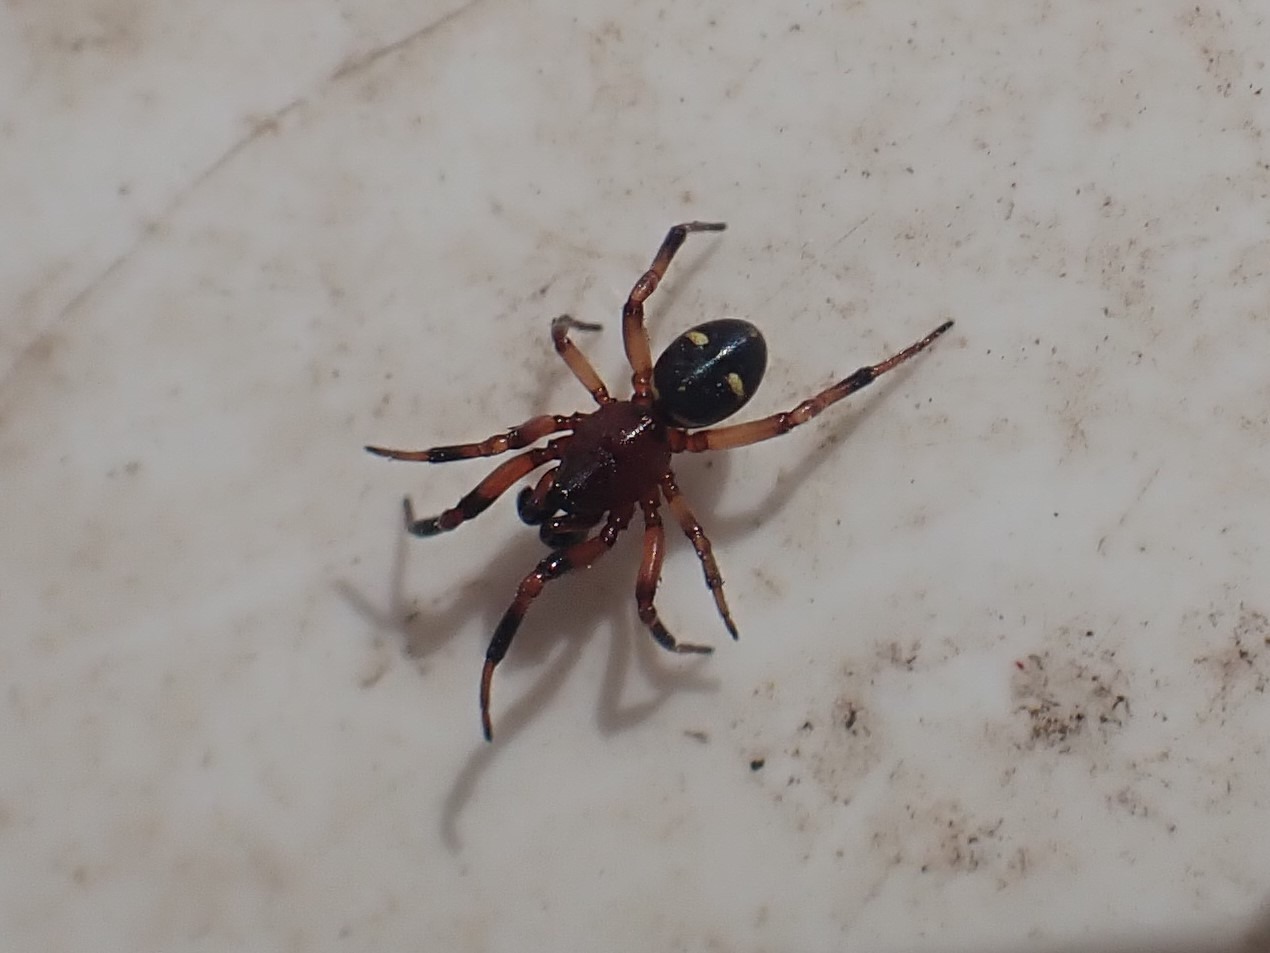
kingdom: Animalia
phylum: Arthropoda
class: Arachnida
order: Araneae
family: Theridiidae
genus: Asagena
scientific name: Asagena phalerata
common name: Smuk voksedderkop
